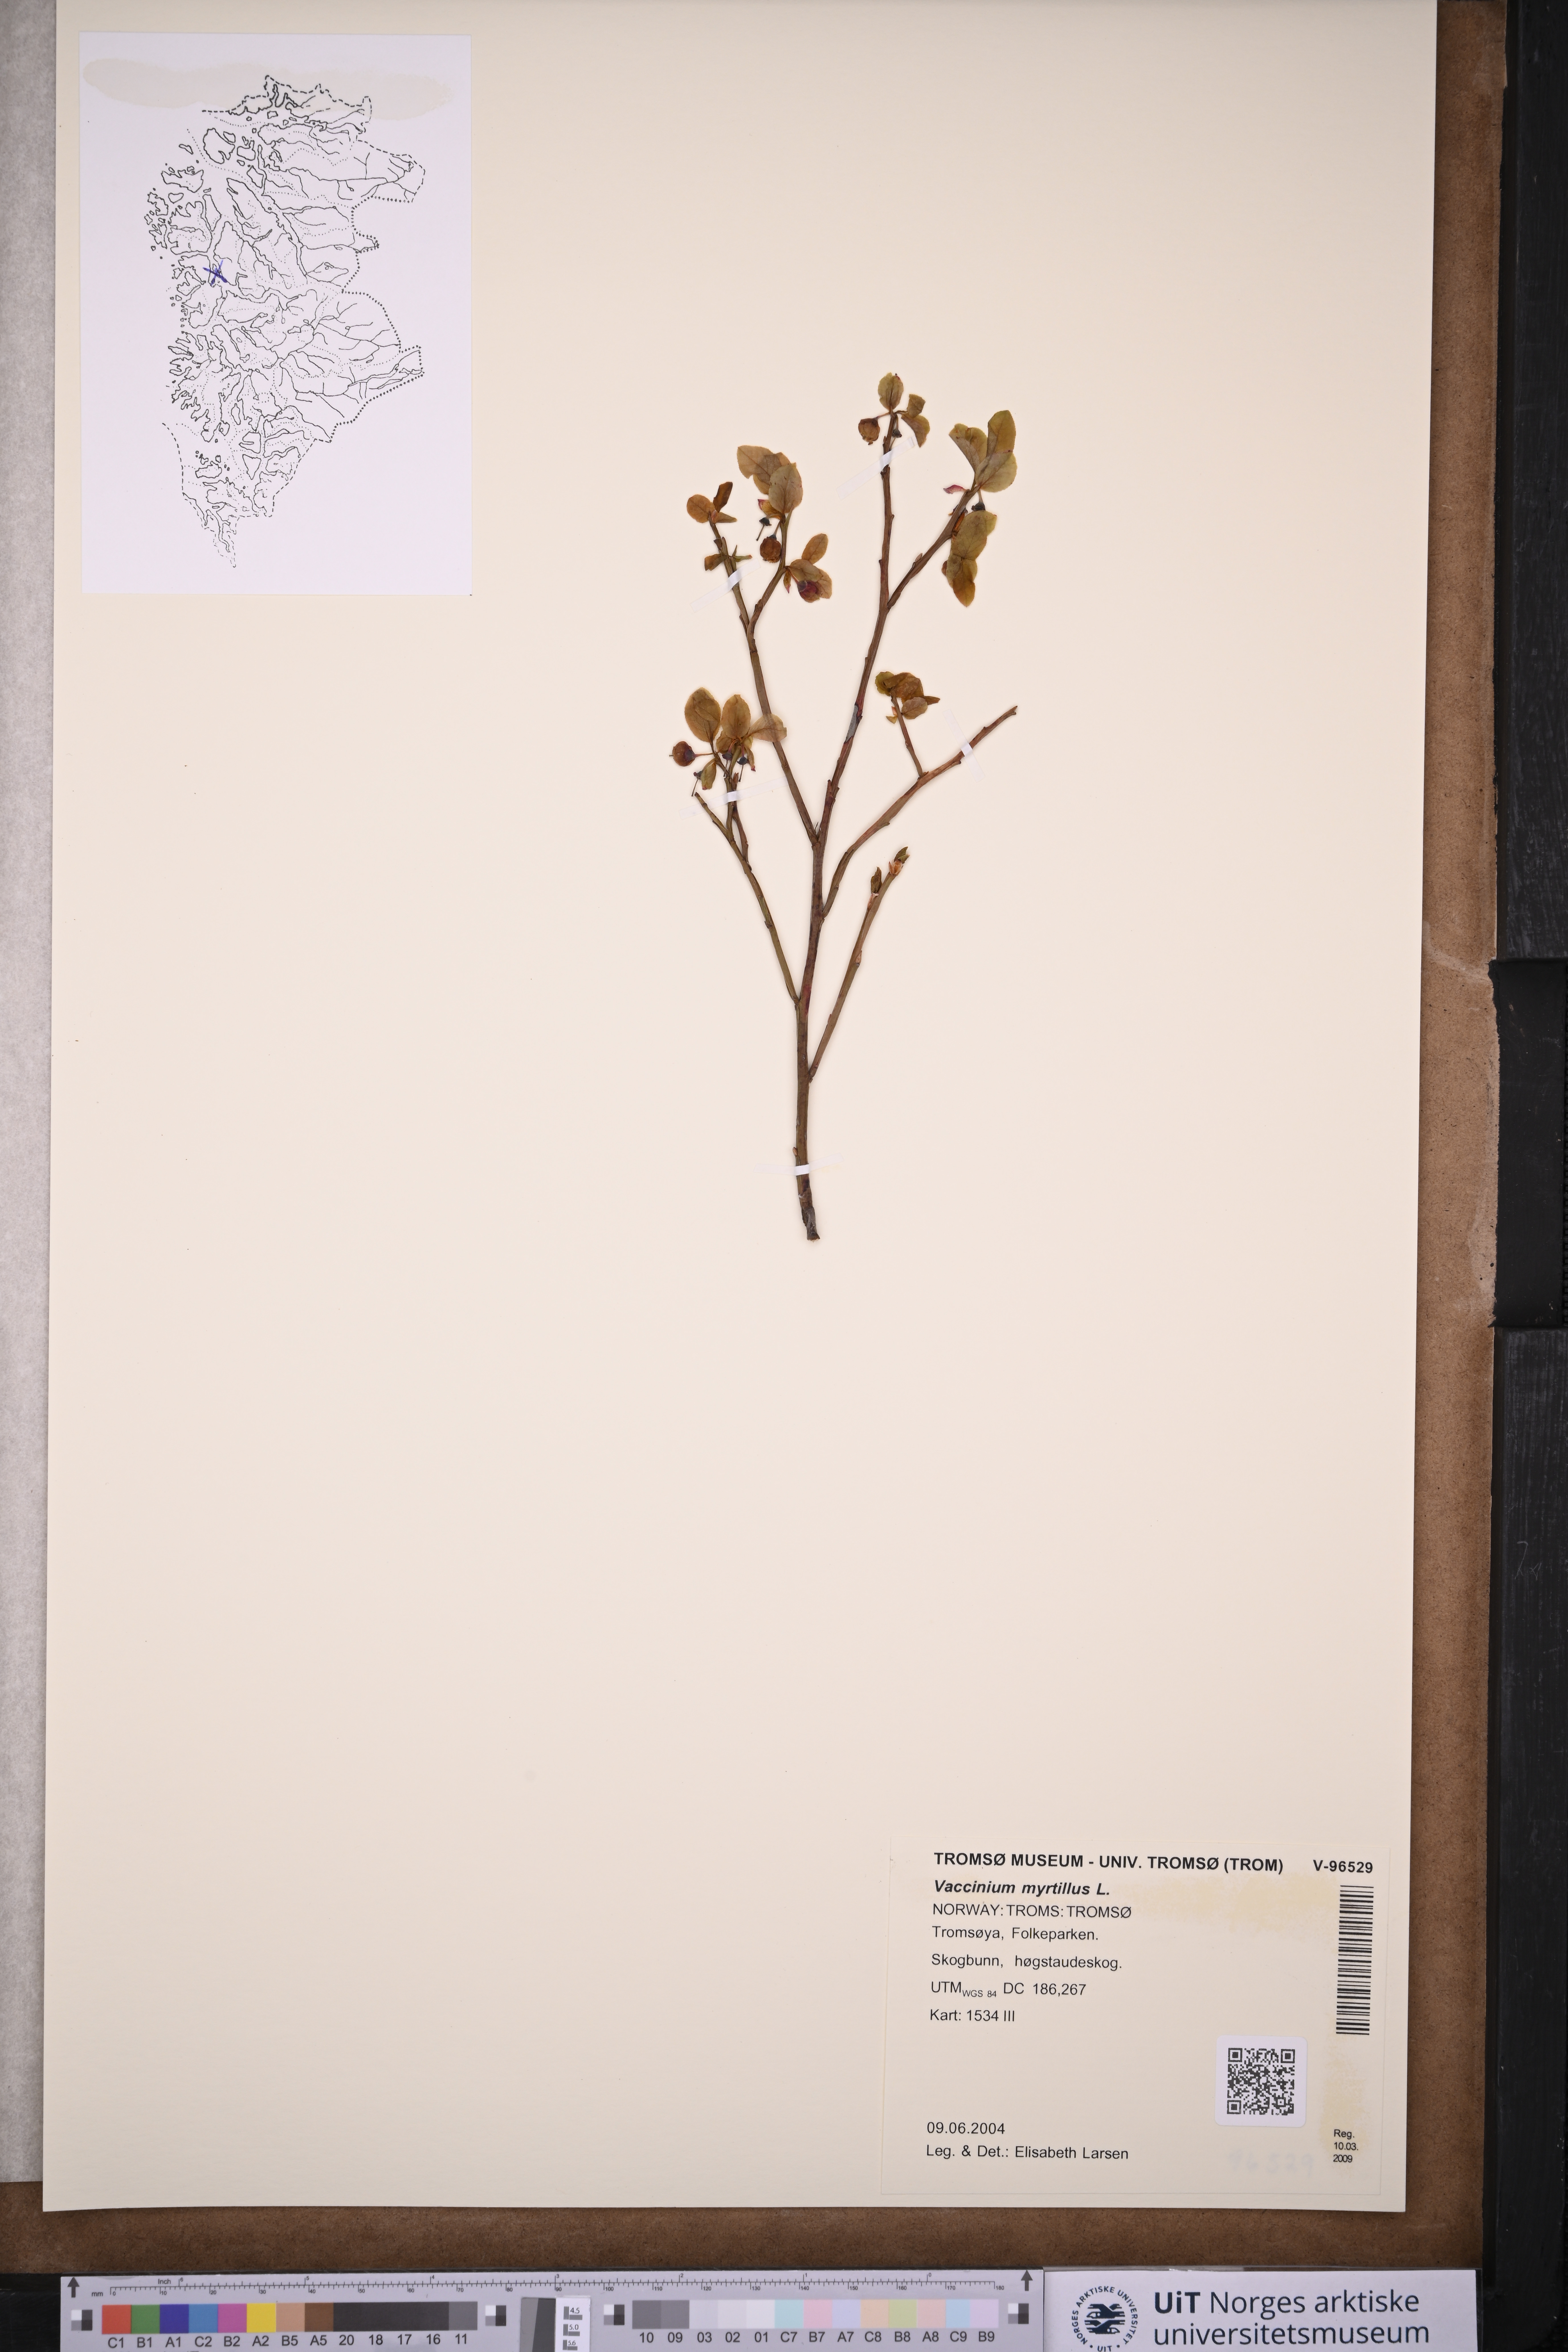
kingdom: Plantae
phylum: Tracheophyta
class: Magnoliopsida
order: Ericales
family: Ericaceae
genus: Vaccinium
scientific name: Vaccinium myrtillus
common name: Bilberry
